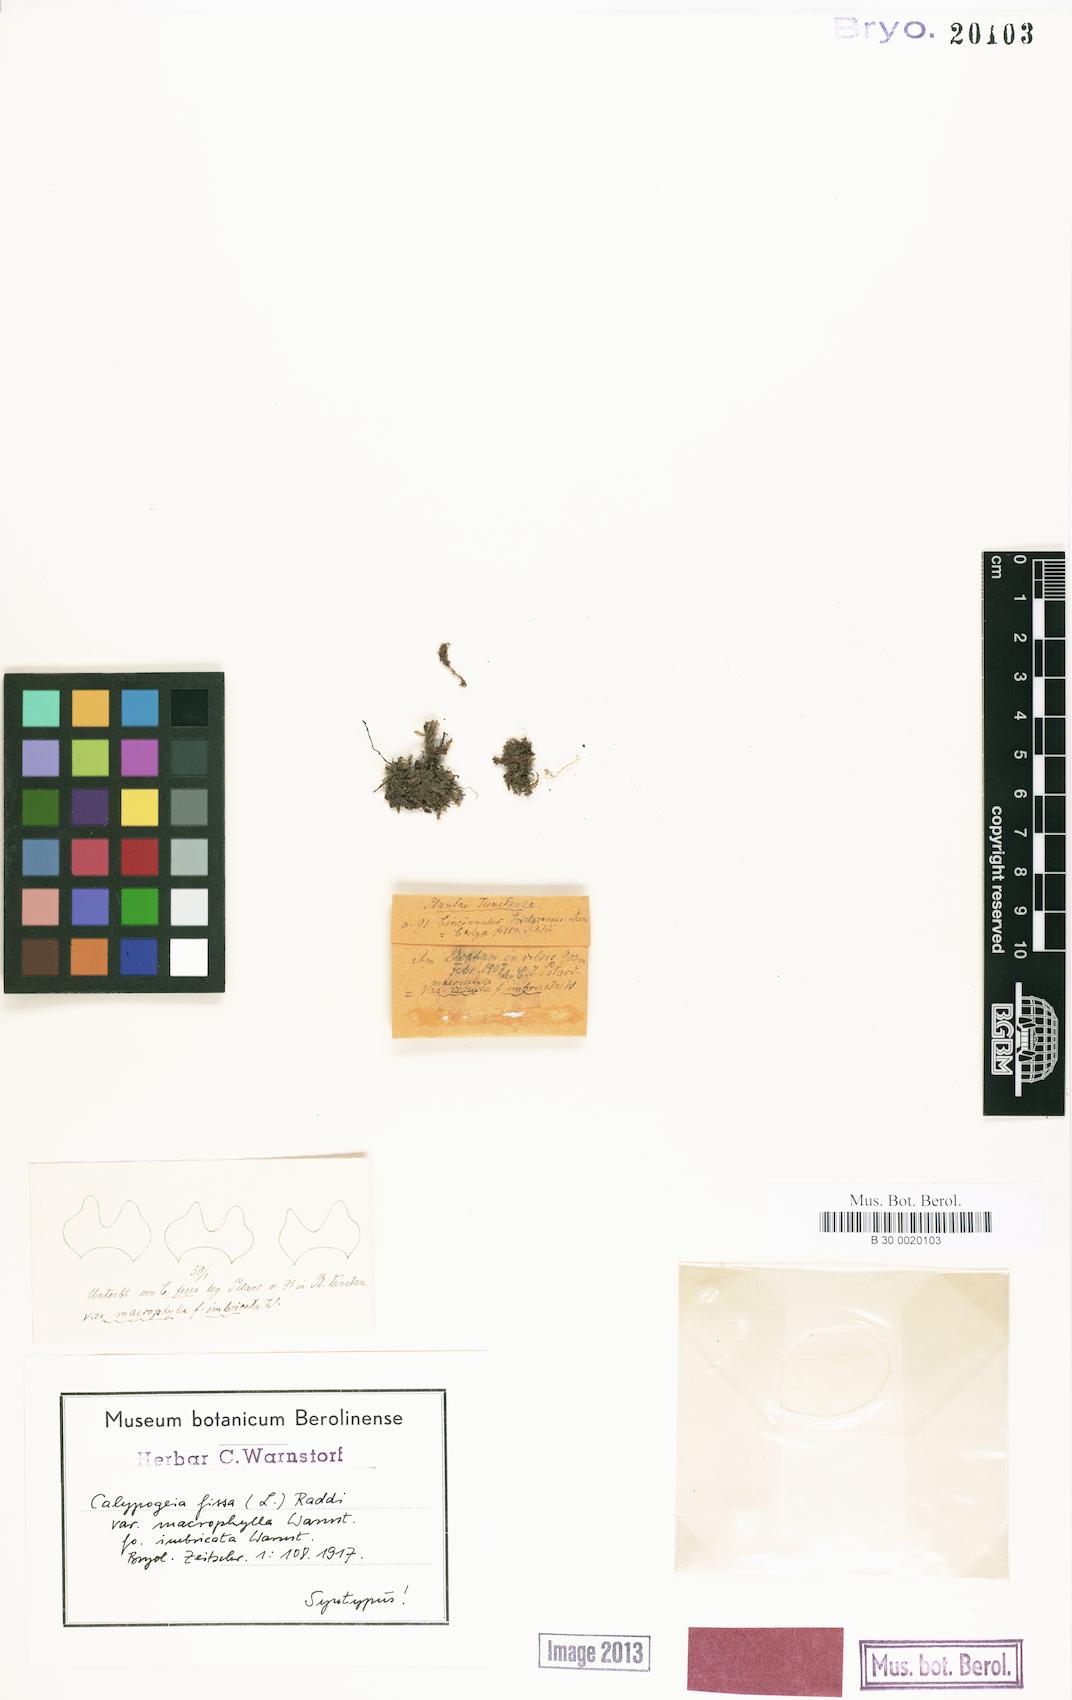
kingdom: Plantae
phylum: Marchantiophyta
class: Jungermanniopsida
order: Jungermanniales
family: Calypogeiaceae
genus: Calypogeia
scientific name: Calypogeia fissa
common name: Common pouchwort
